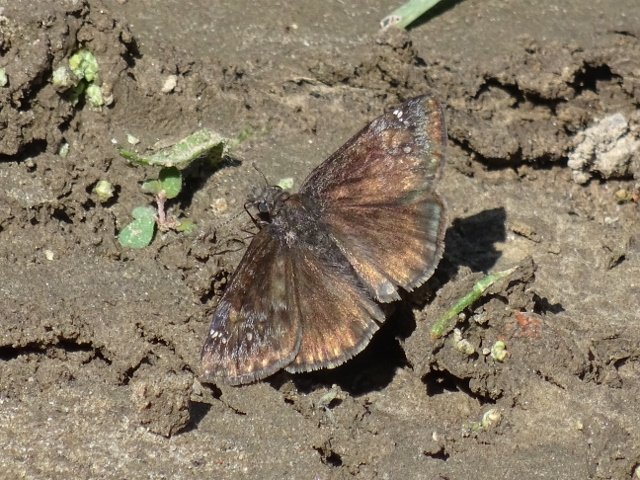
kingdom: Animalia
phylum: Arthropoda
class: Insecta
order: Lepidoptera
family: Hesperiidae
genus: Gesta
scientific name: Gesta
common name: Wild Indigo Duskywing
